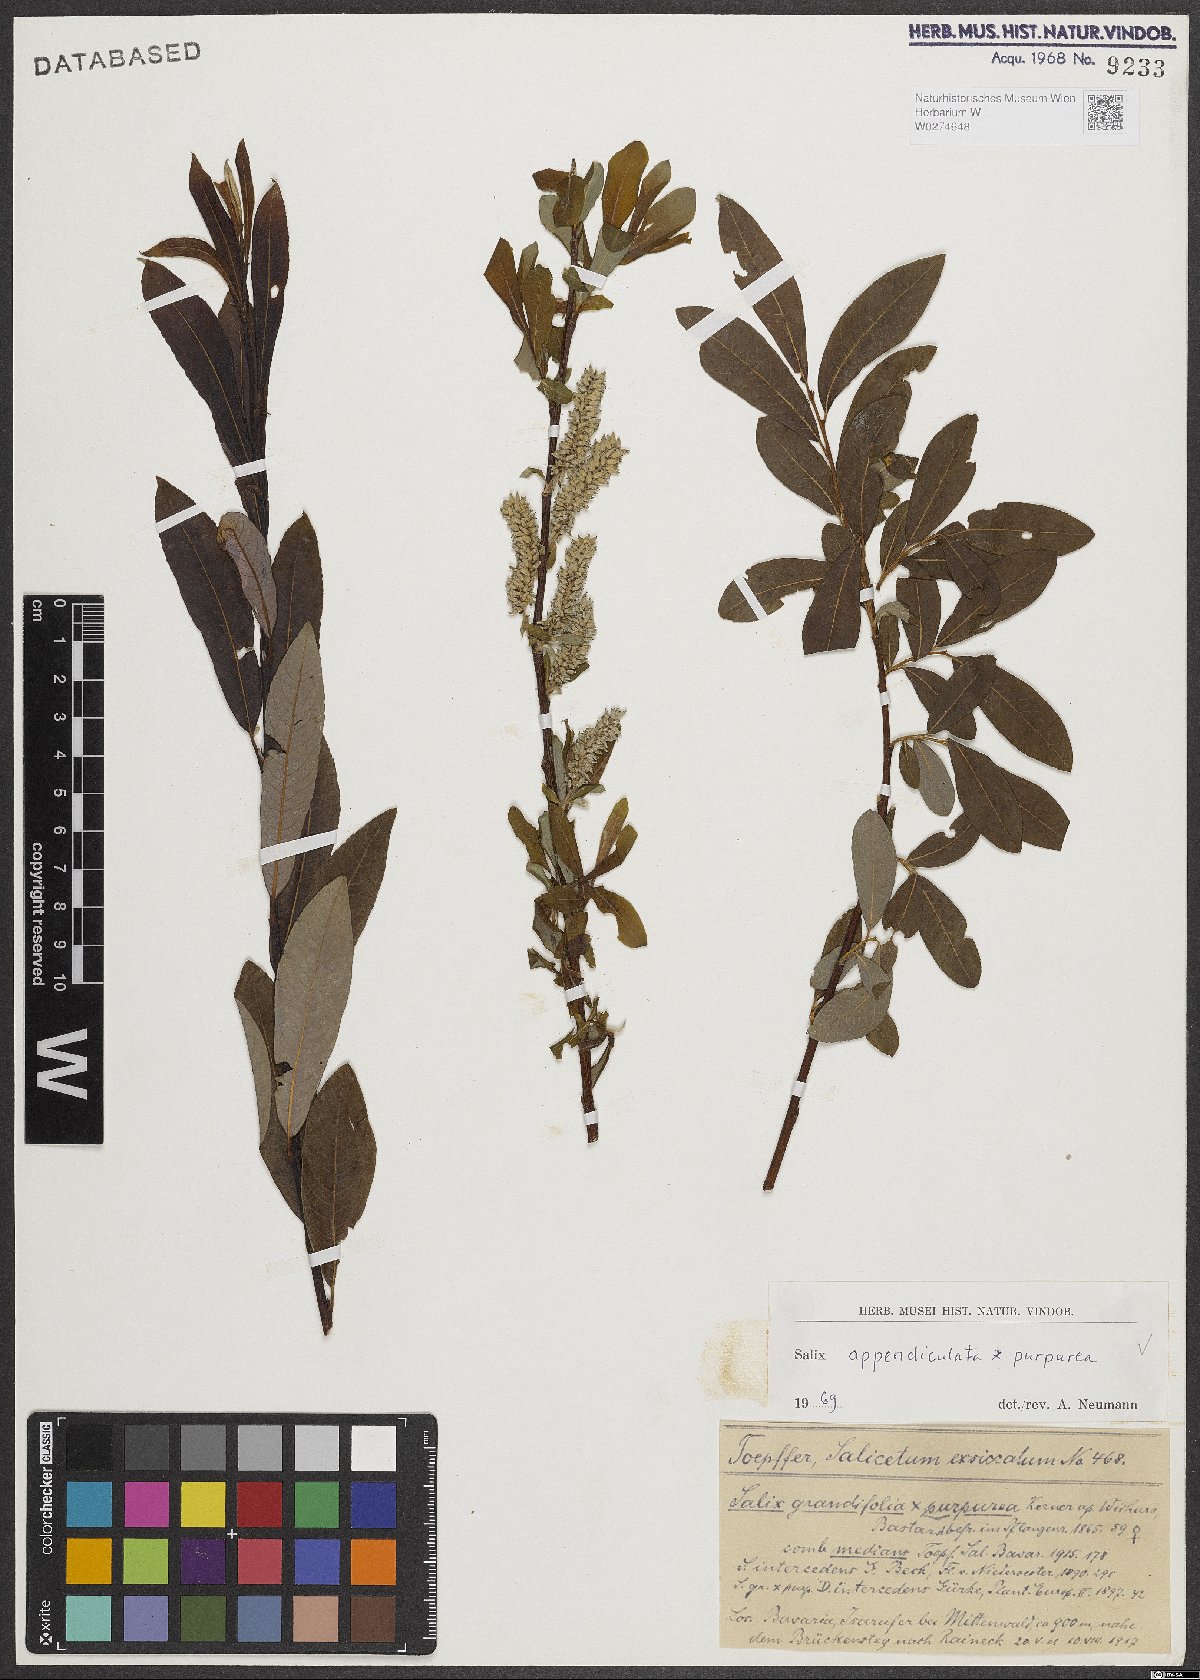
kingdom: Plantae
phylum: Tracheophyta
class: Magnoliopsida
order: Malpighiales
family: Salicaceae
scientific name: Salicaceae
